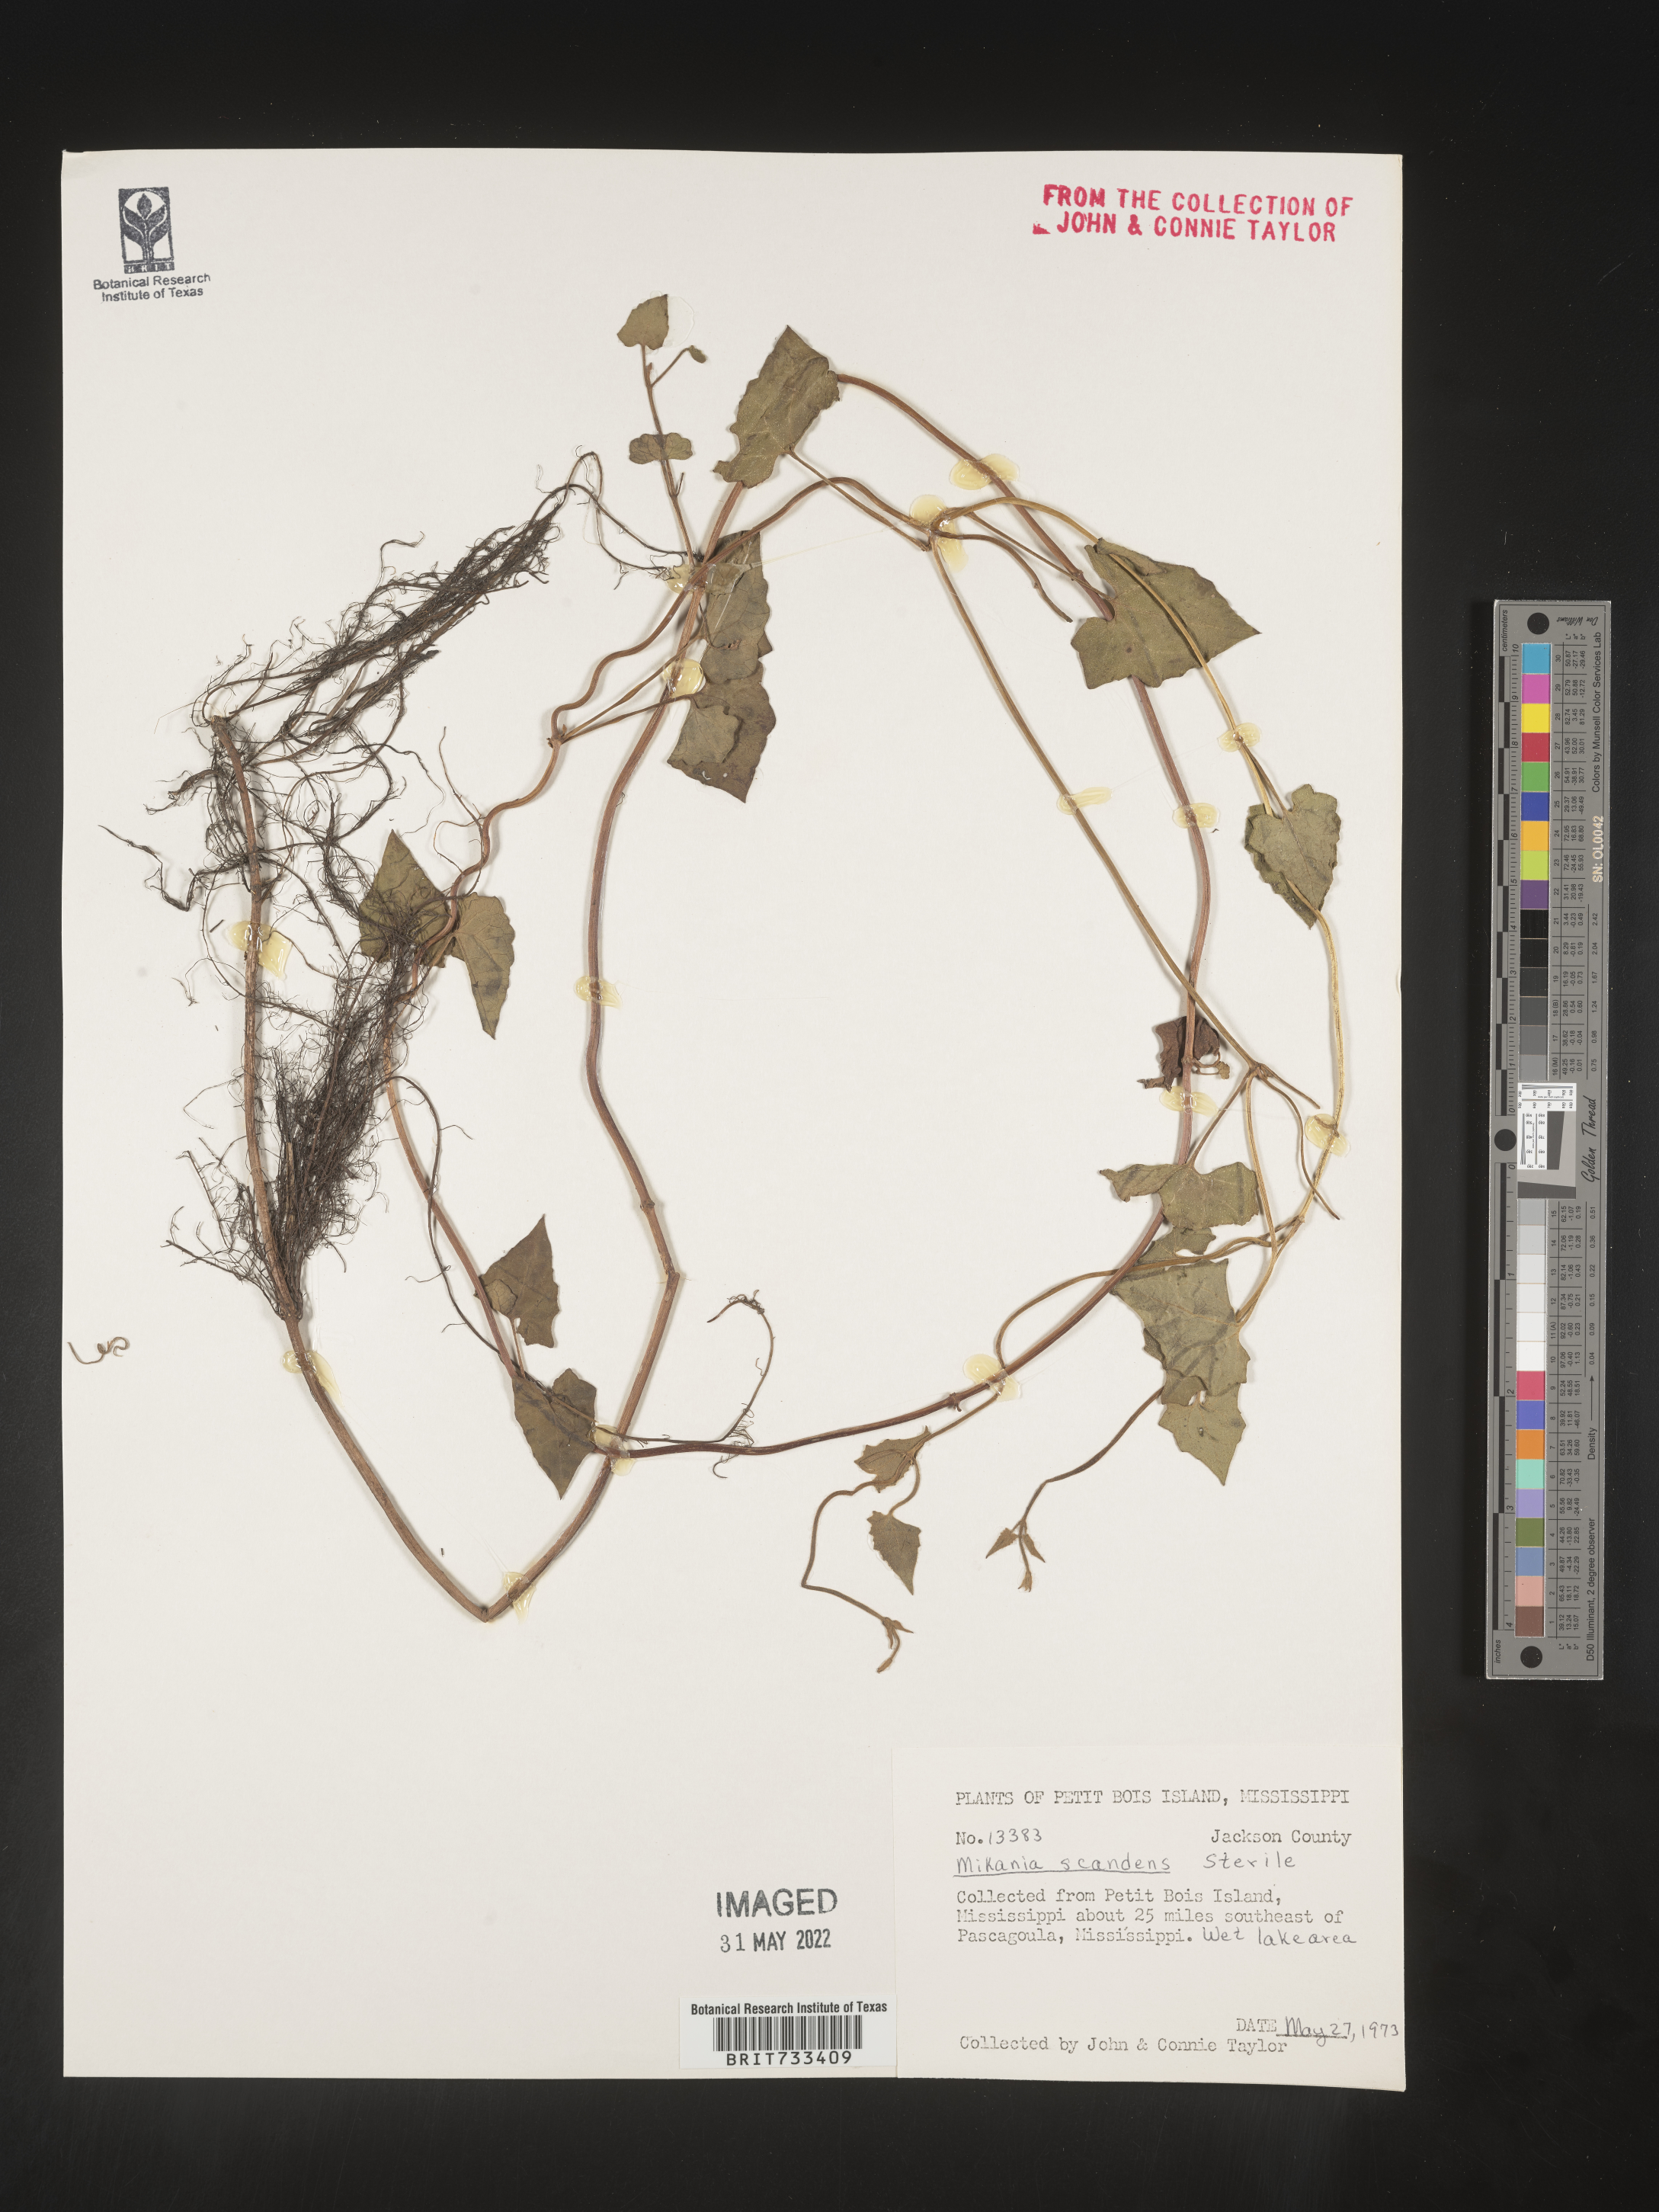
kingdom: Plantae
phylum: Tracheophyta
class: Magnoliopsida
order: Asterales
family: Asteraceae
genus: Mikania
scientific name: Mikania scandens
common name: Climbing hempvine
